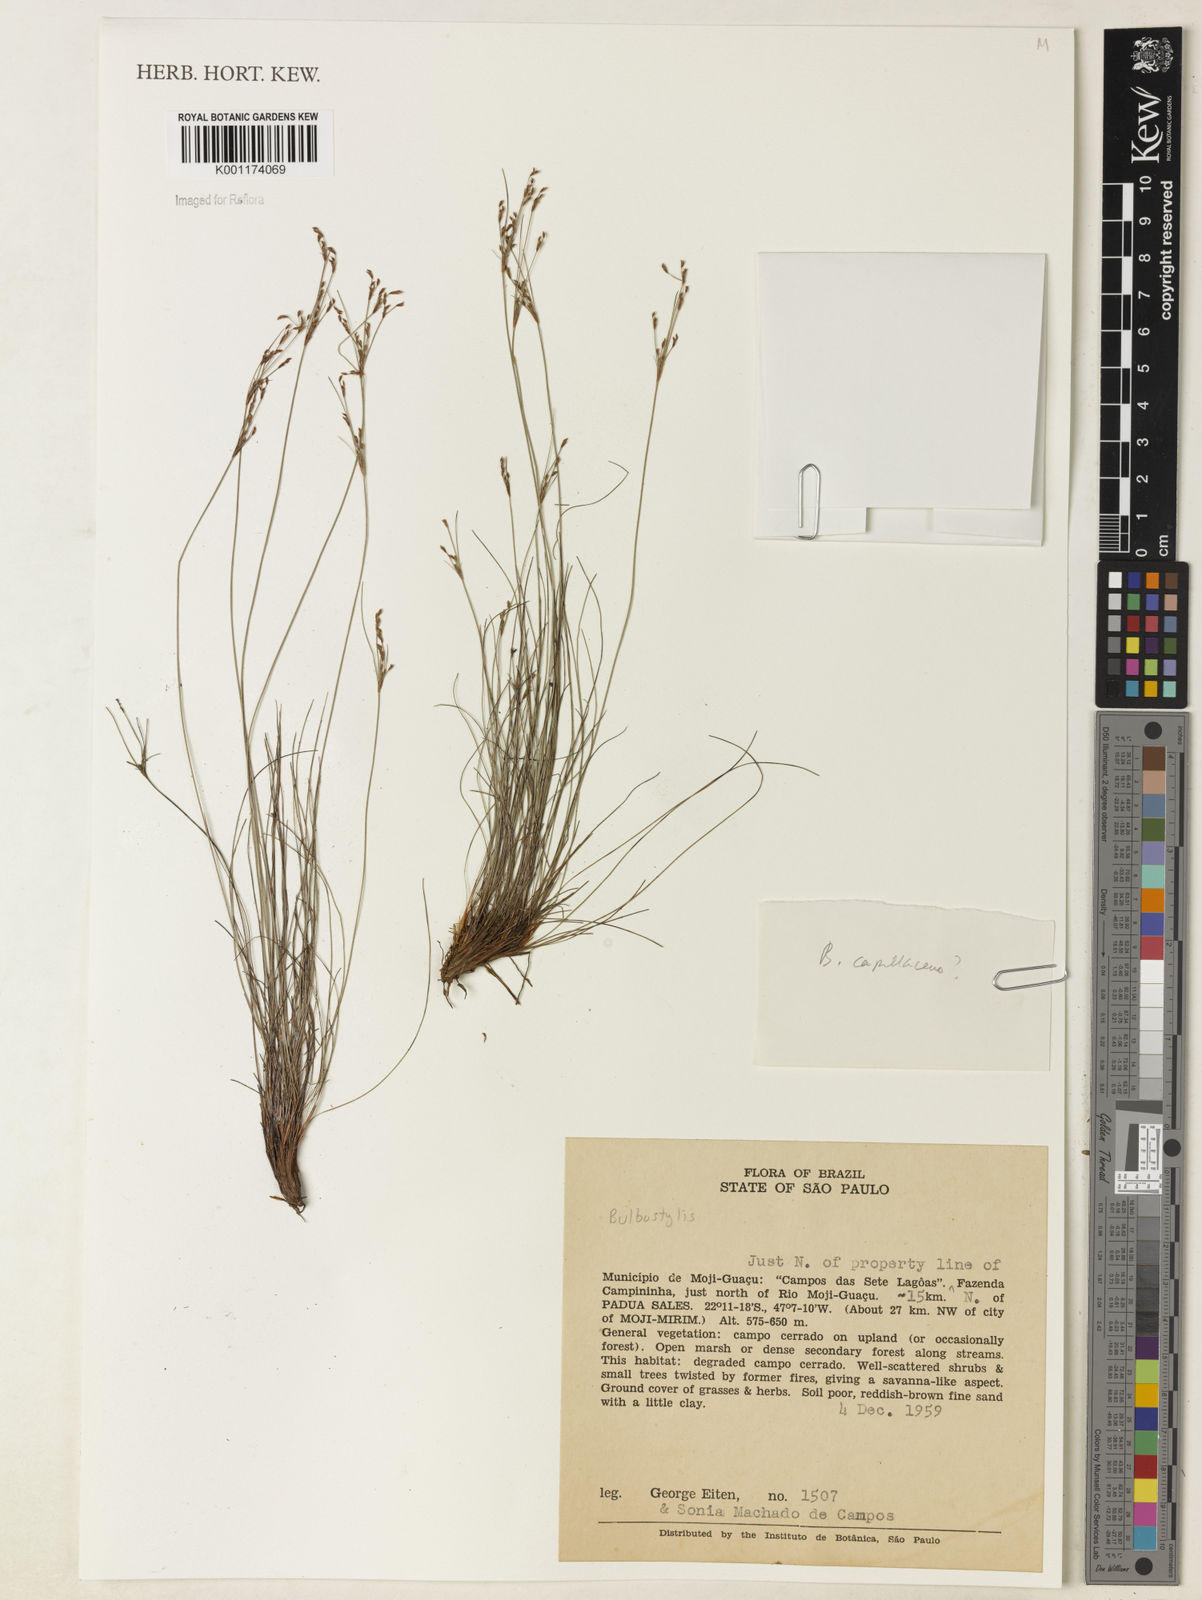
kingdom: Plantae
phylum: Tracheophyta
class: Liliopsida
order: Poales
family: Cyperaceae
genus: Bulbostylis
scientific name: Bulbostylis
